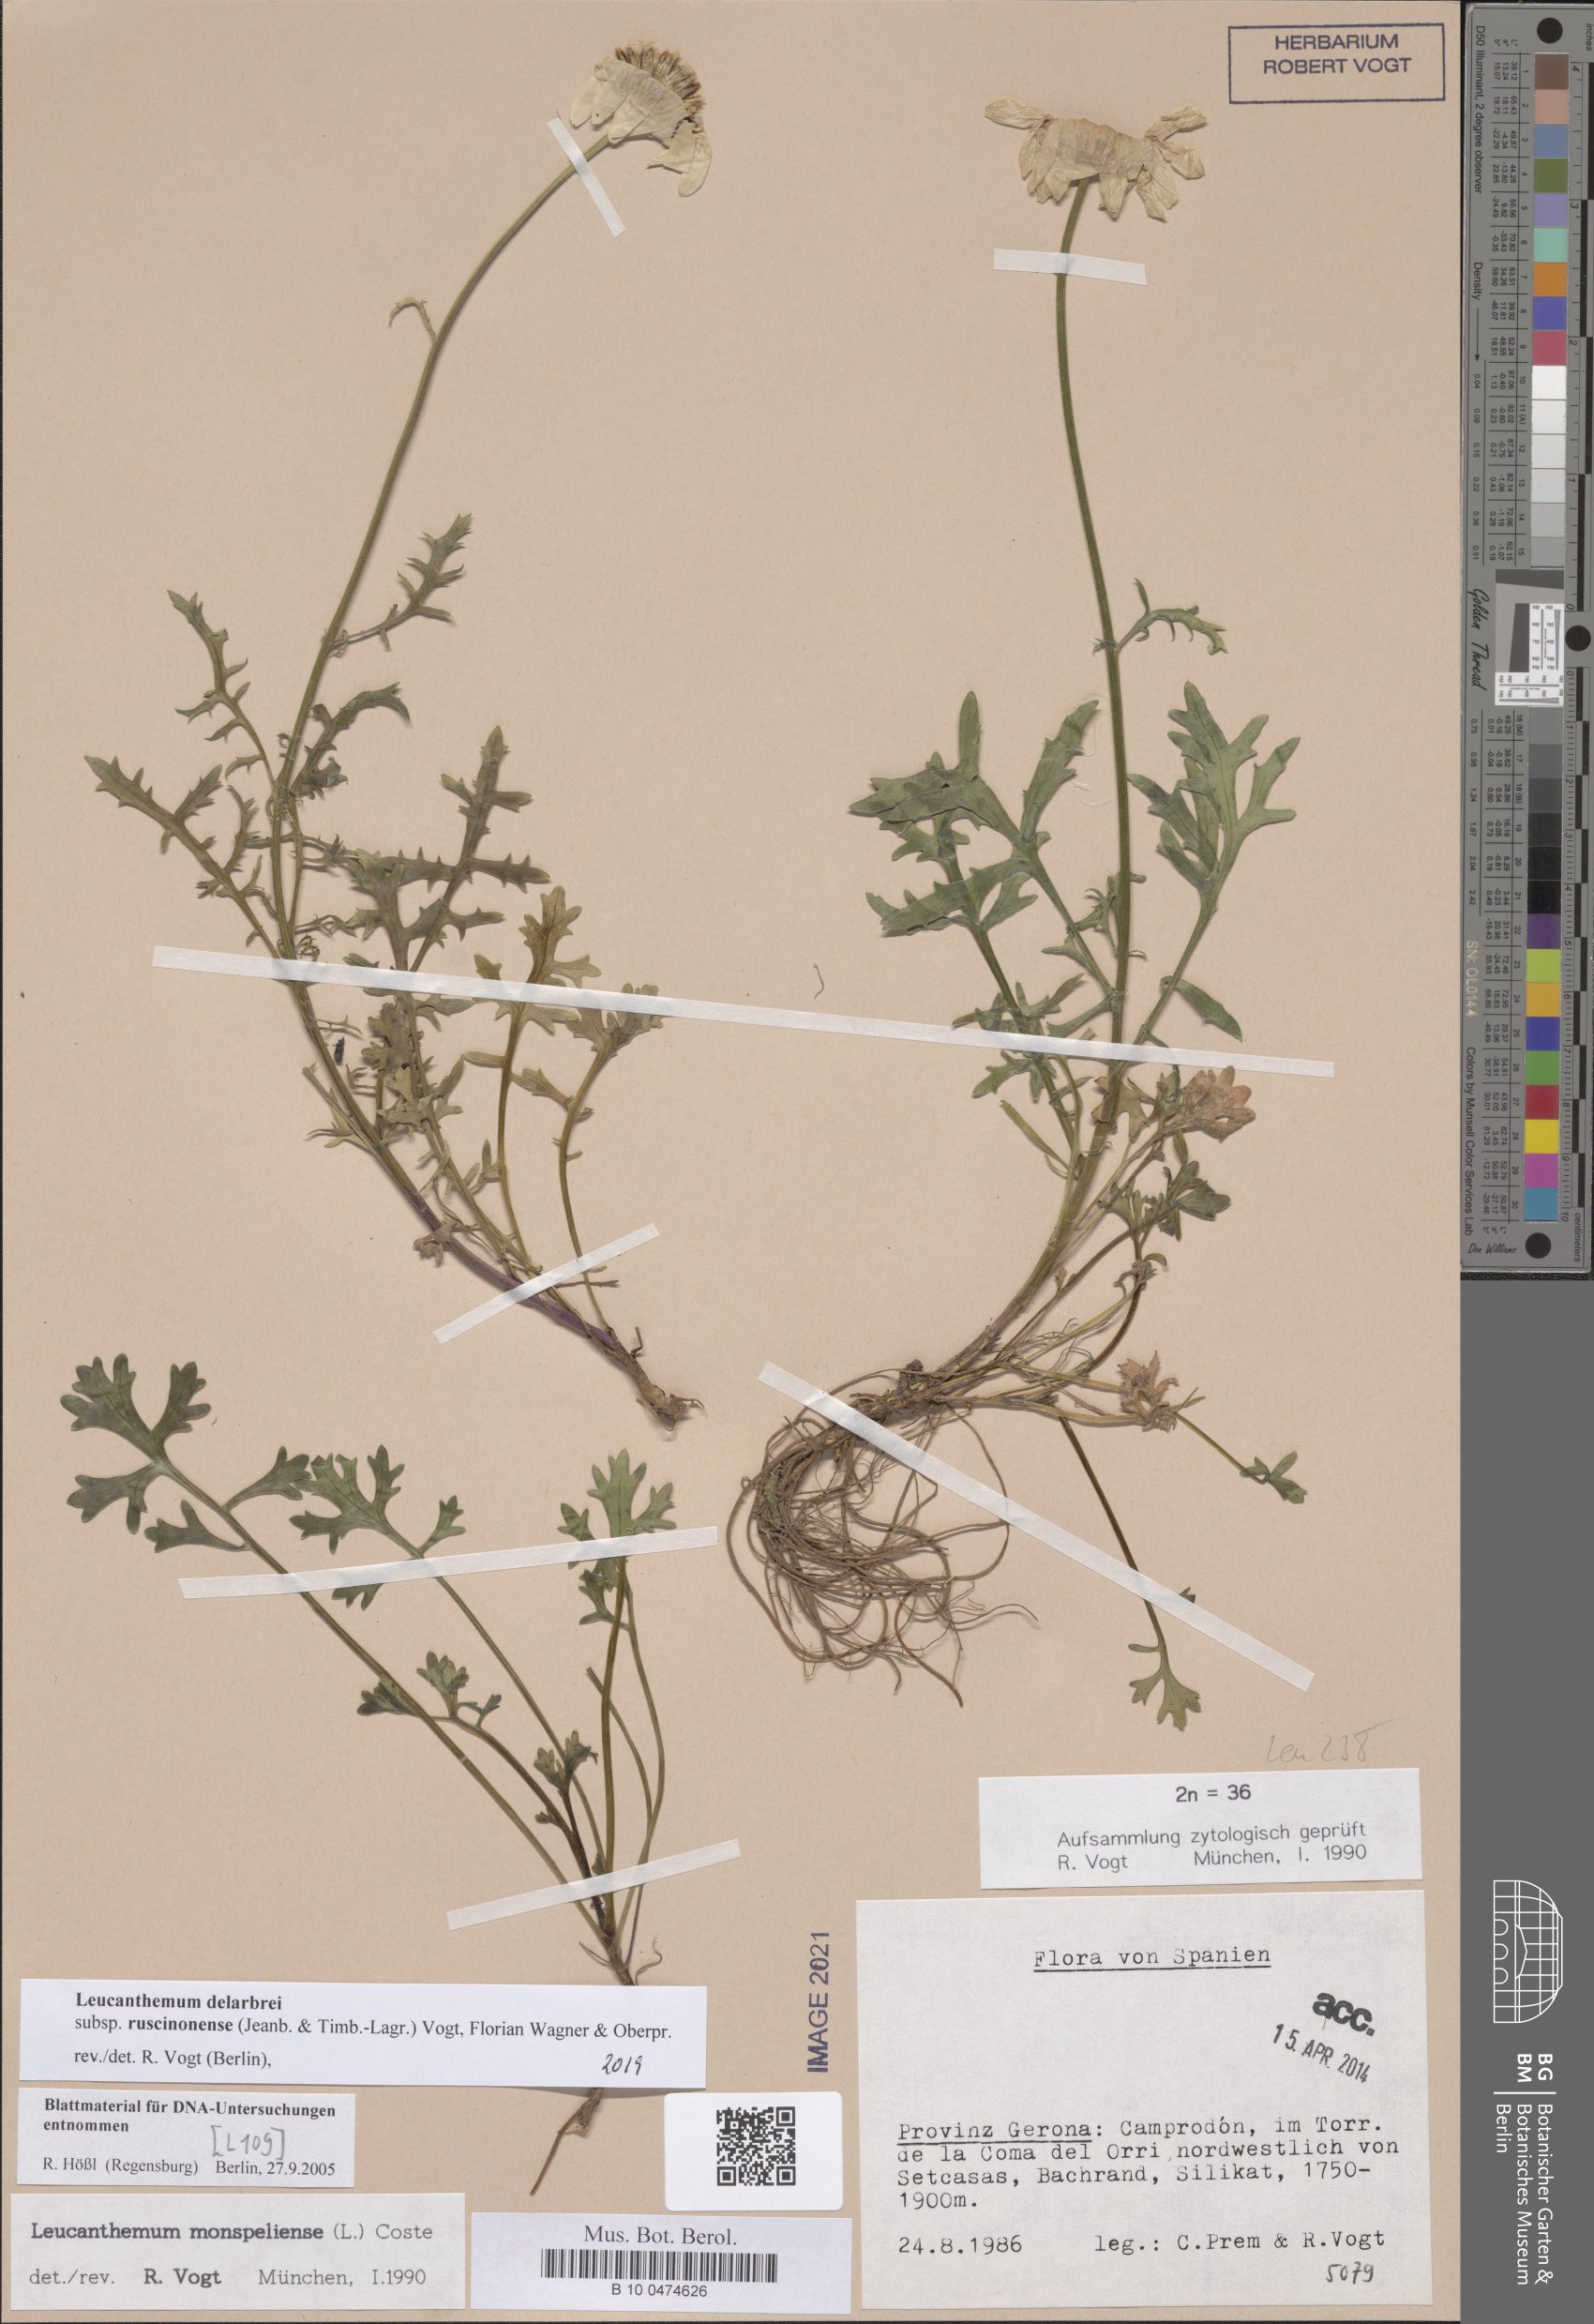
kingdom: Plantae
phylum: Tracheophyta
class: Magnoliopsida
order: Asterales
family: Asteraceae
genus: Leucanthemum
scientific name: Leucanthemum delarbrei
